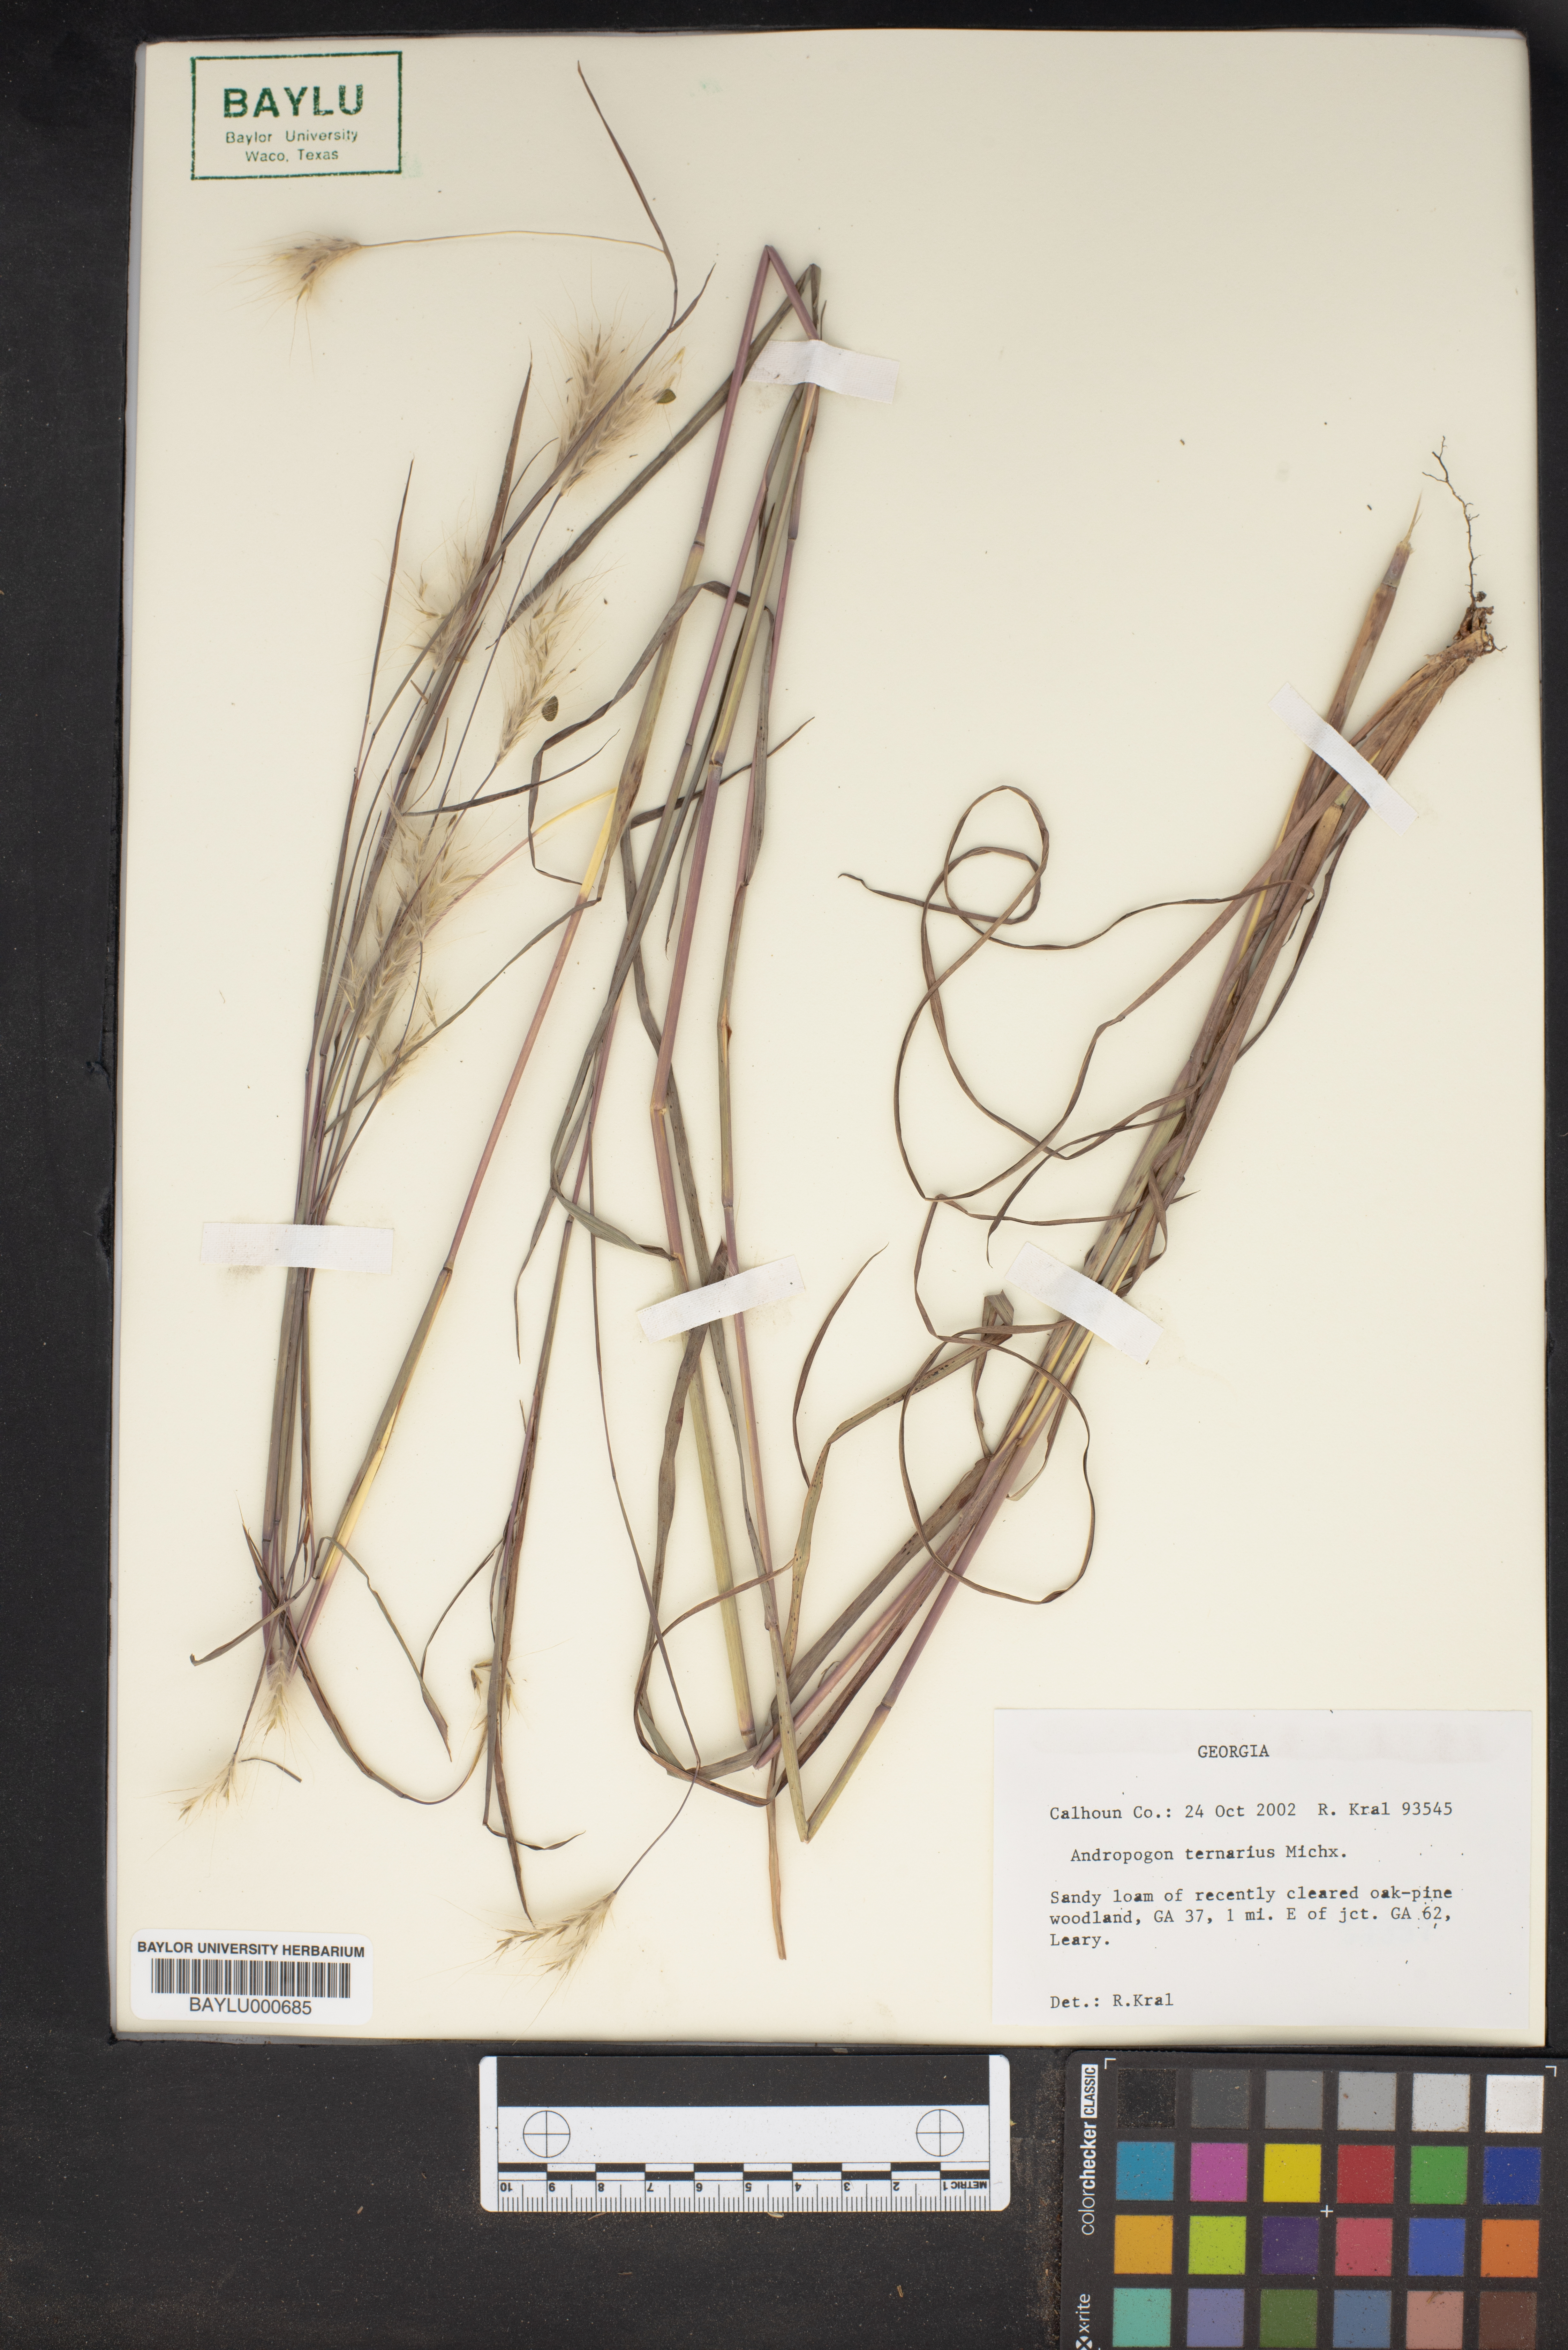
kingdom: Plantae
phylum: Tracheophyta
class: Liliopsida
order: Poales
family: Poaceae
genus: Andropogon
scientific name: Andropogon ternarius
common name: Split bluestem
